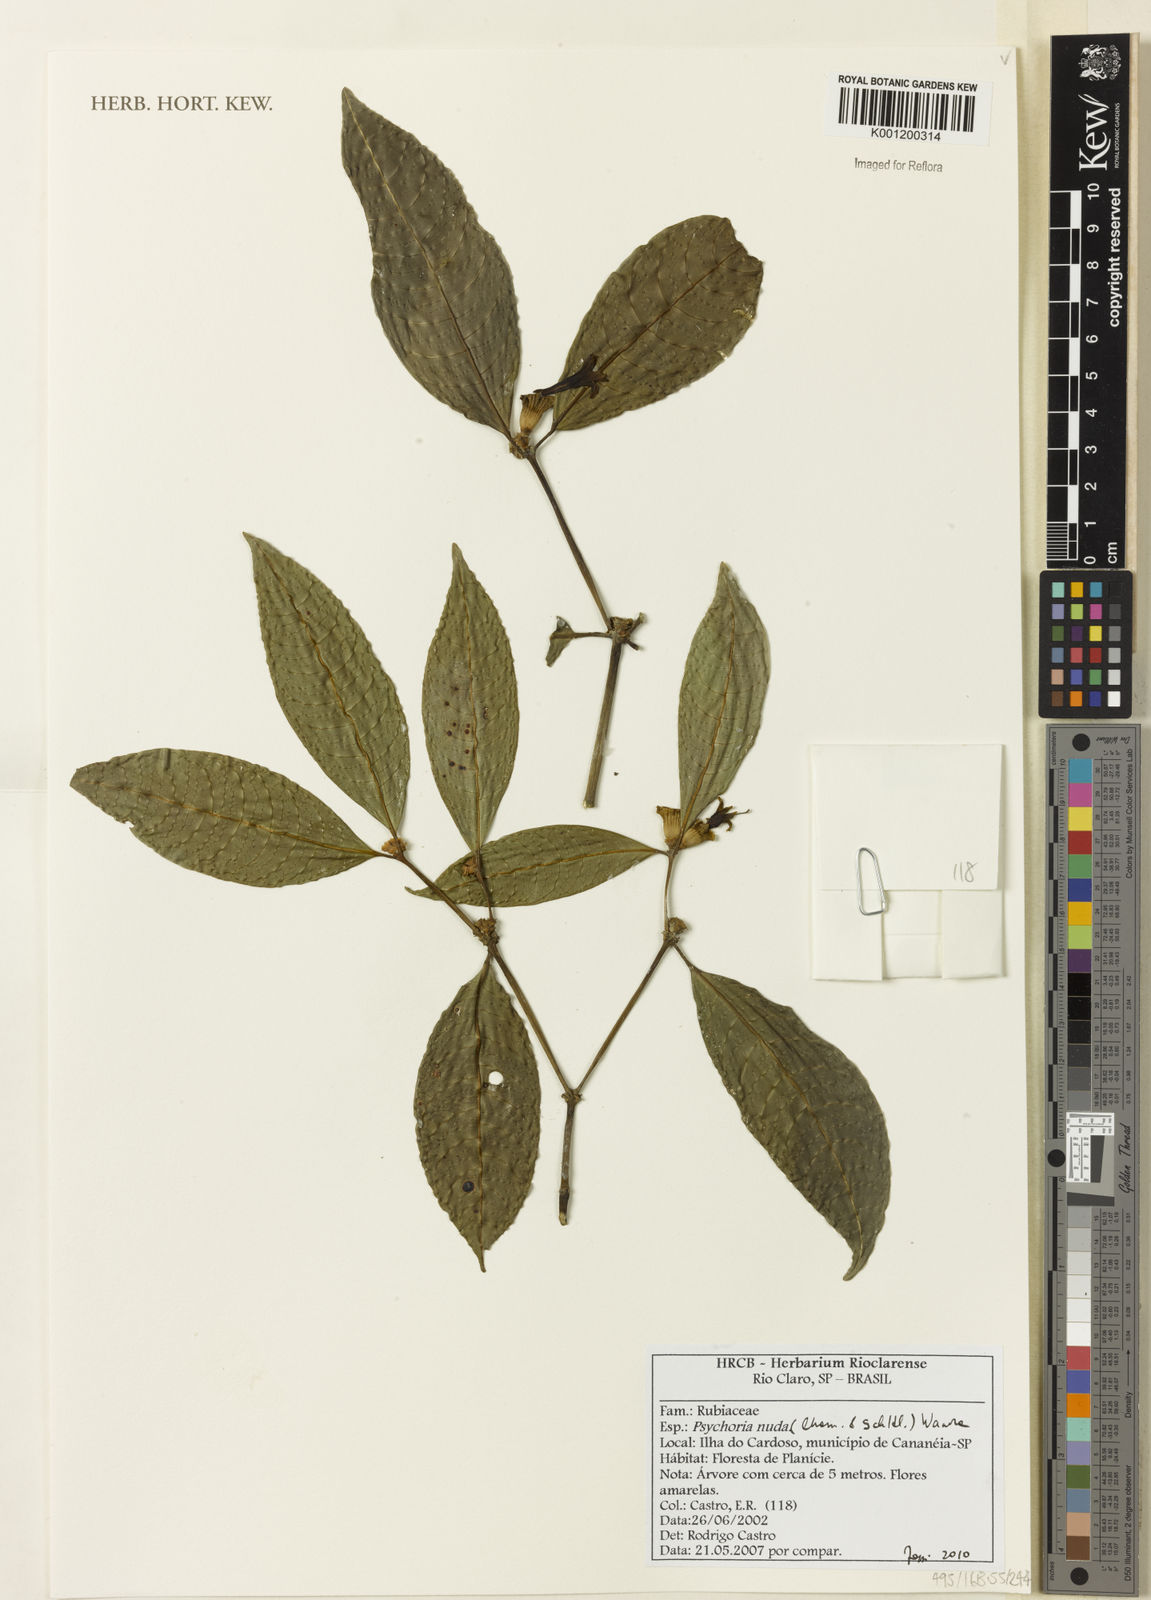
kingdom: Plantae
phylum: Tracheophyta
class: Magnoliopsida
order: Gentianales
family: Rubiaceae
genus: Psychotria
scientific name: Psychotria nuda
